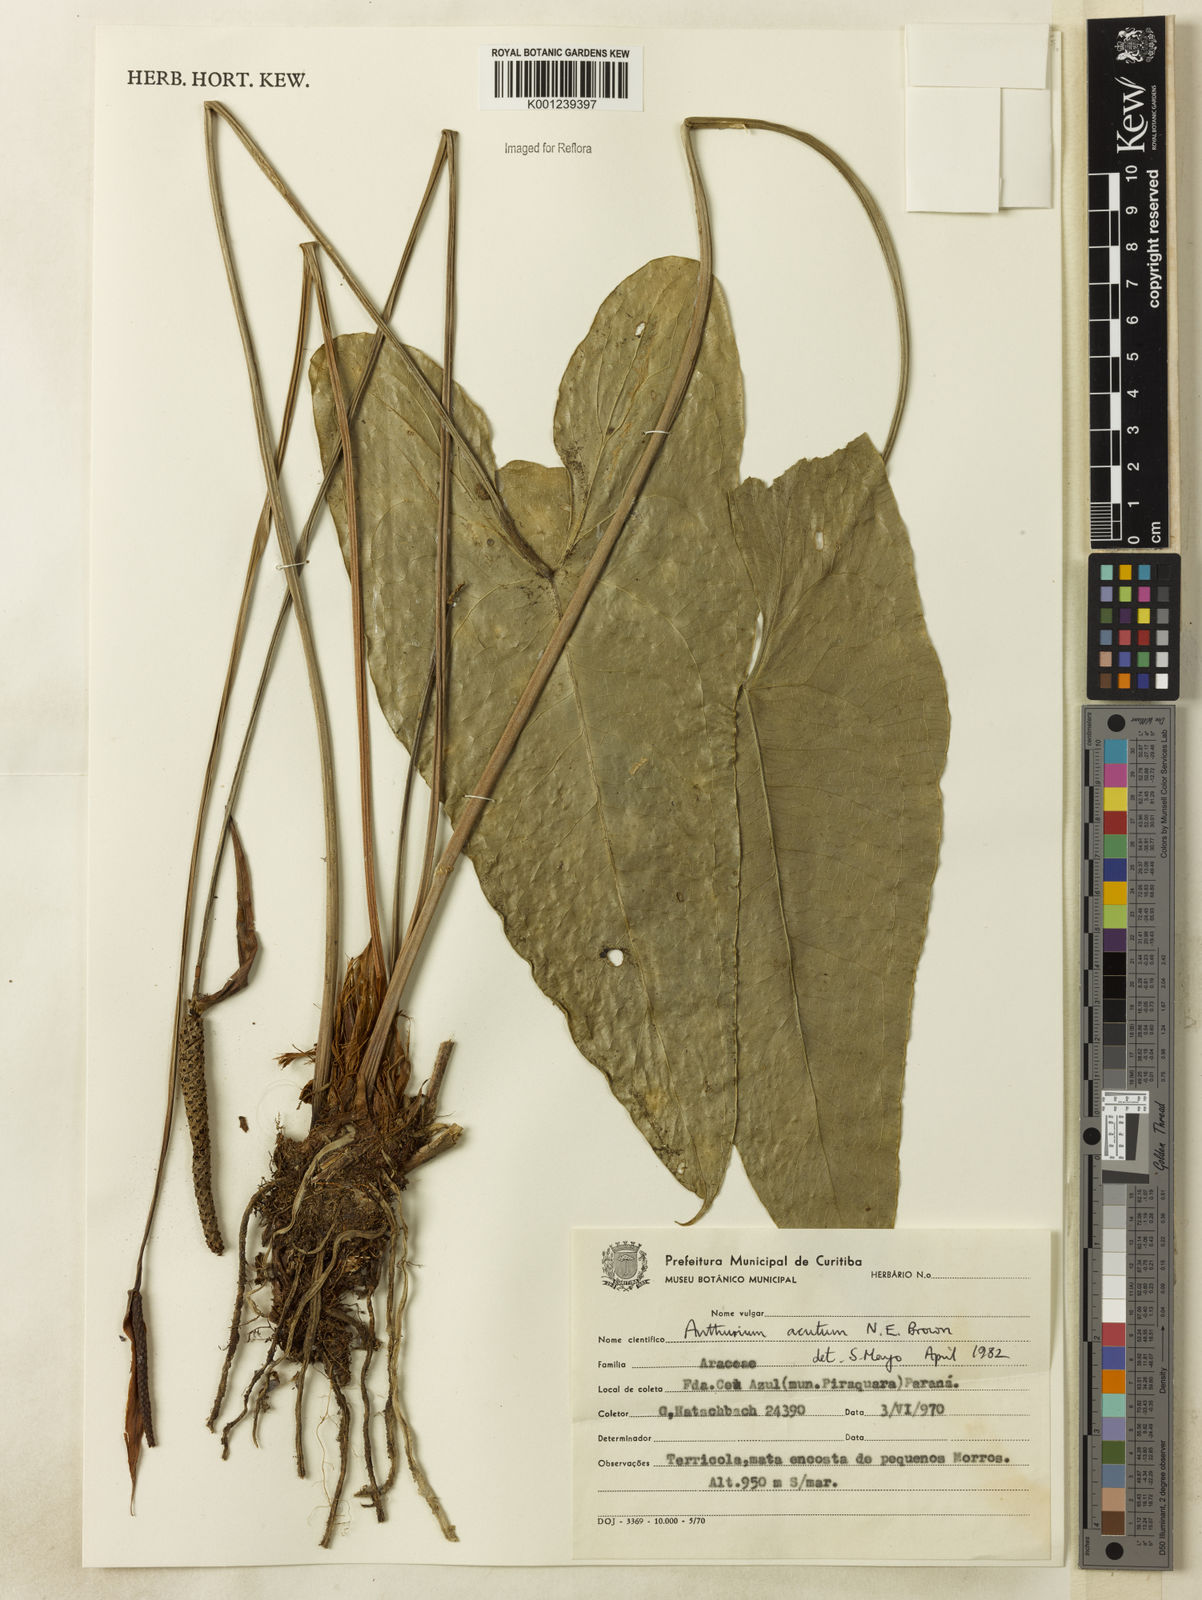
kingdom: Plantae
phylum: Tracheophyta
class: Liliopsida
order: Alismatales
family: Araceae
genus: Anthurium
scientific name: Anthurium acutum
